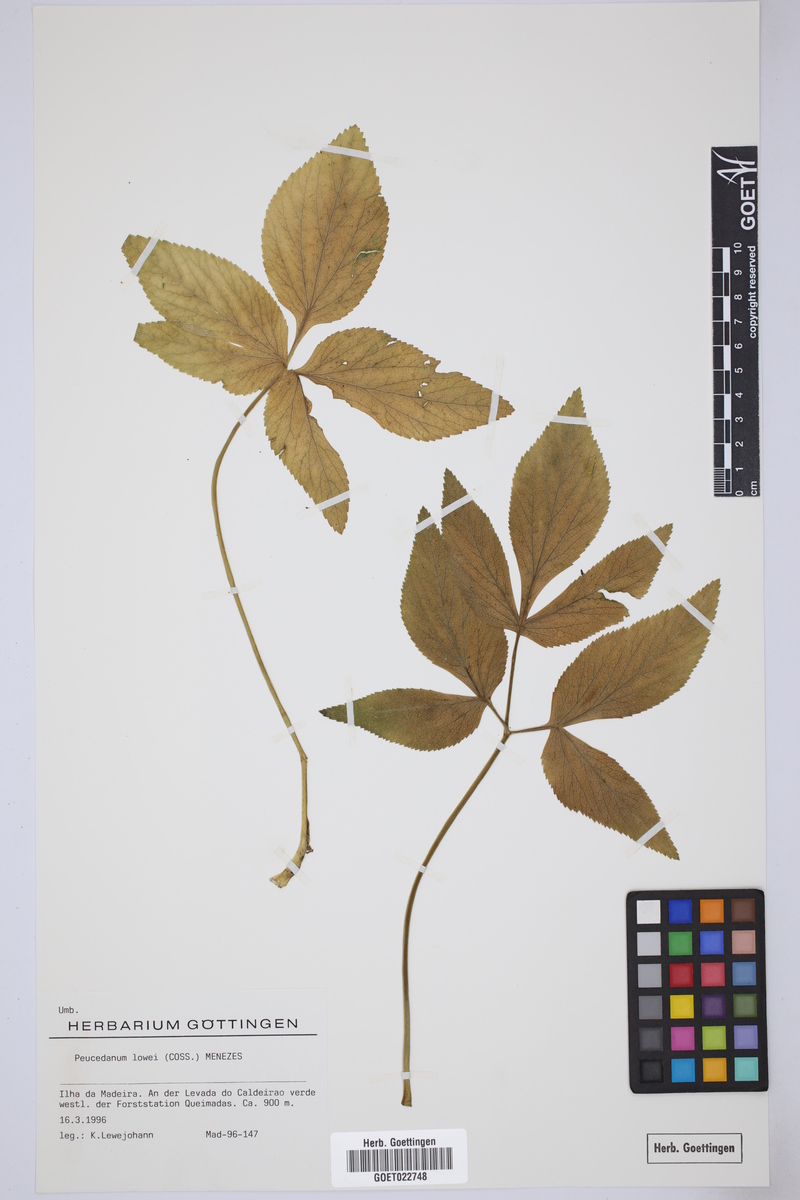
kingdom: Plantae
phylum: Tracheophyta
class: Magnoliopsida
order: Apiales
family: Apiaceae
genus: Imperatoria
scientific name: Imperatoria lowei
